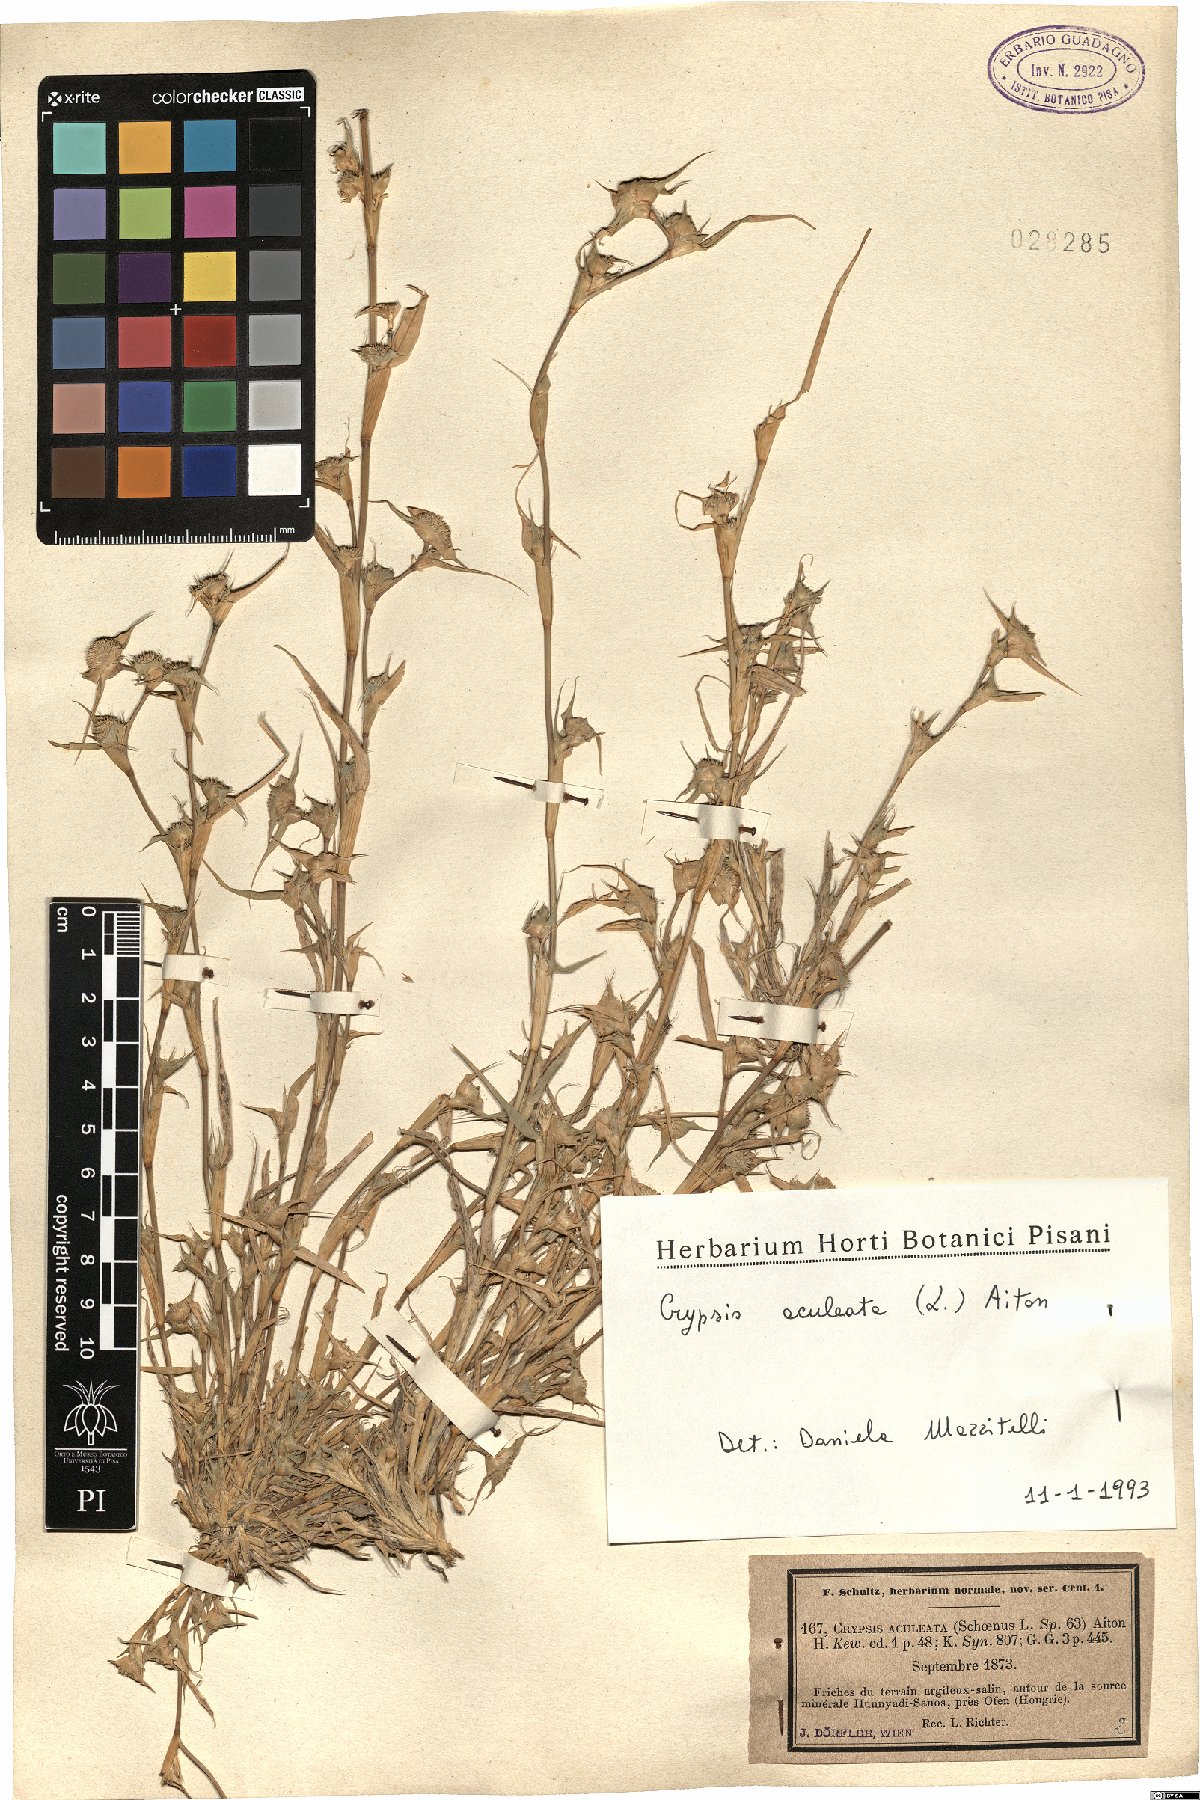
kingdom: Plantae
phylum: Tracheophyta
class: Liliopsida
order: Poales
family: Poaceae
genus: Sporobolus
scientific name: Sporobolus aculeatus
